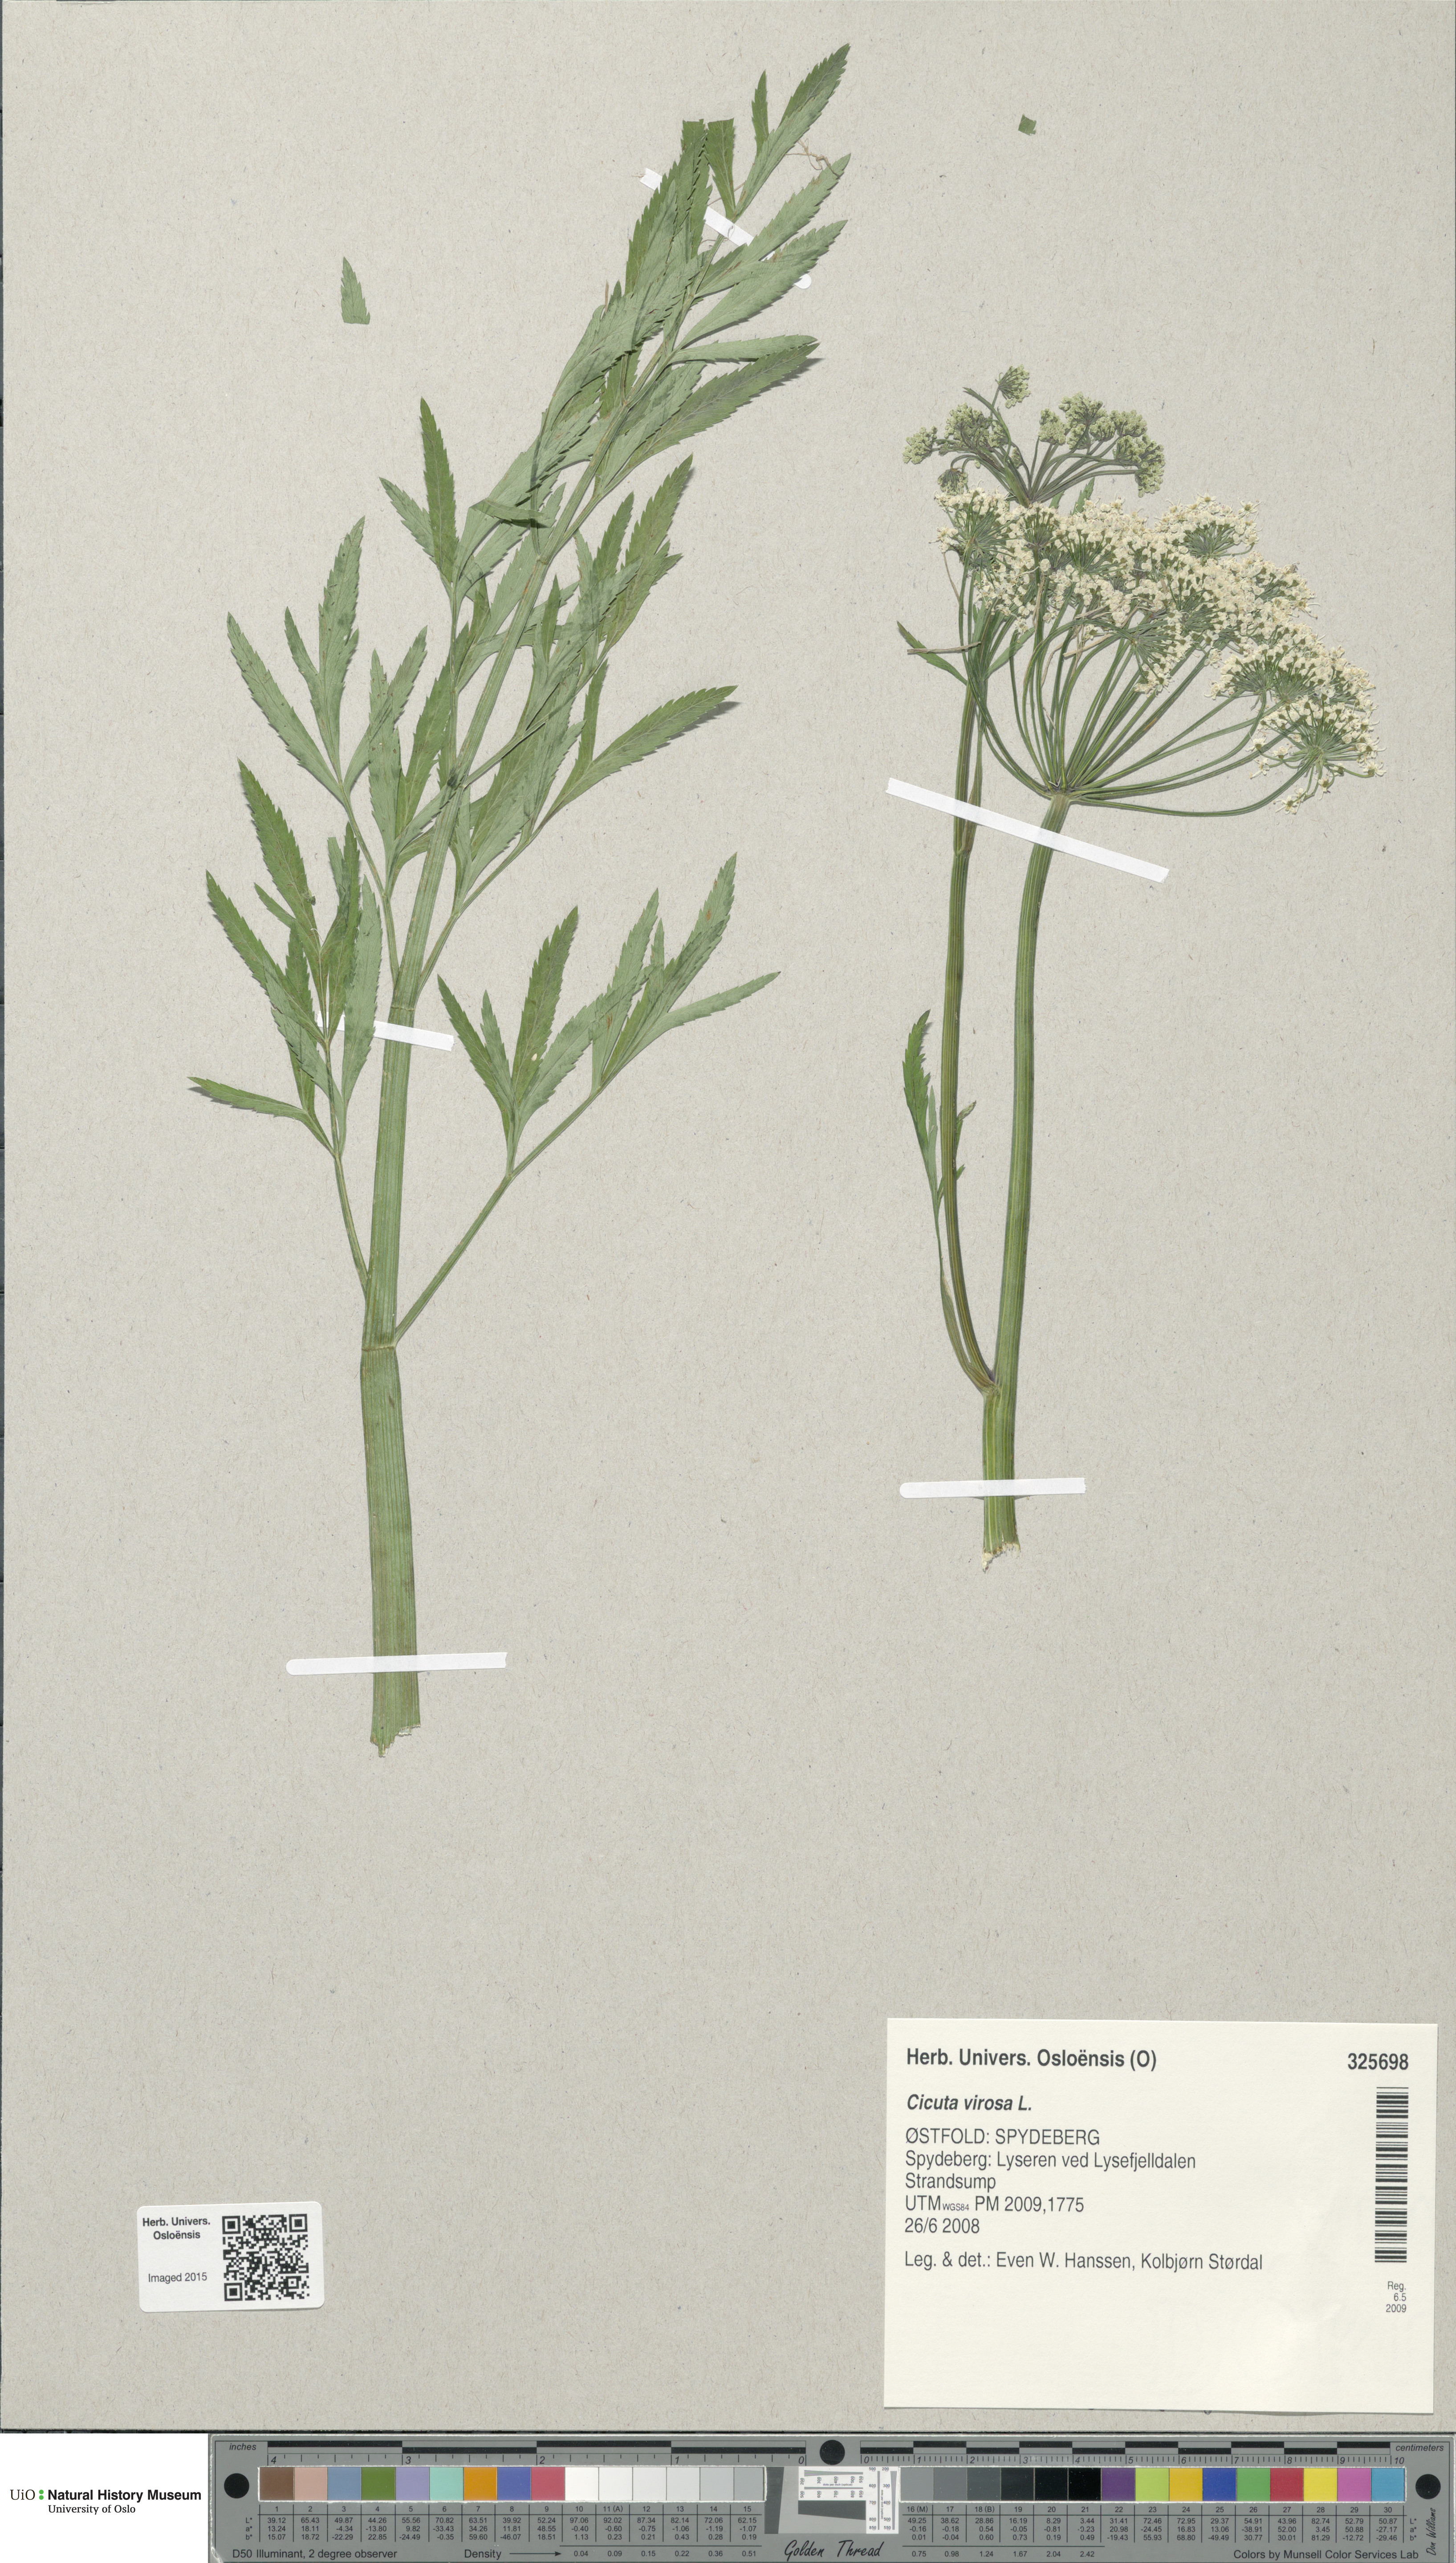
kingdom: Plantae
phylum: Tracheophyta
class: Magnoliopsida
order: Apiales
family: Apiaceae
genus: Cicuta
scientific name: Cicuta virosa
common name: Cowbane
